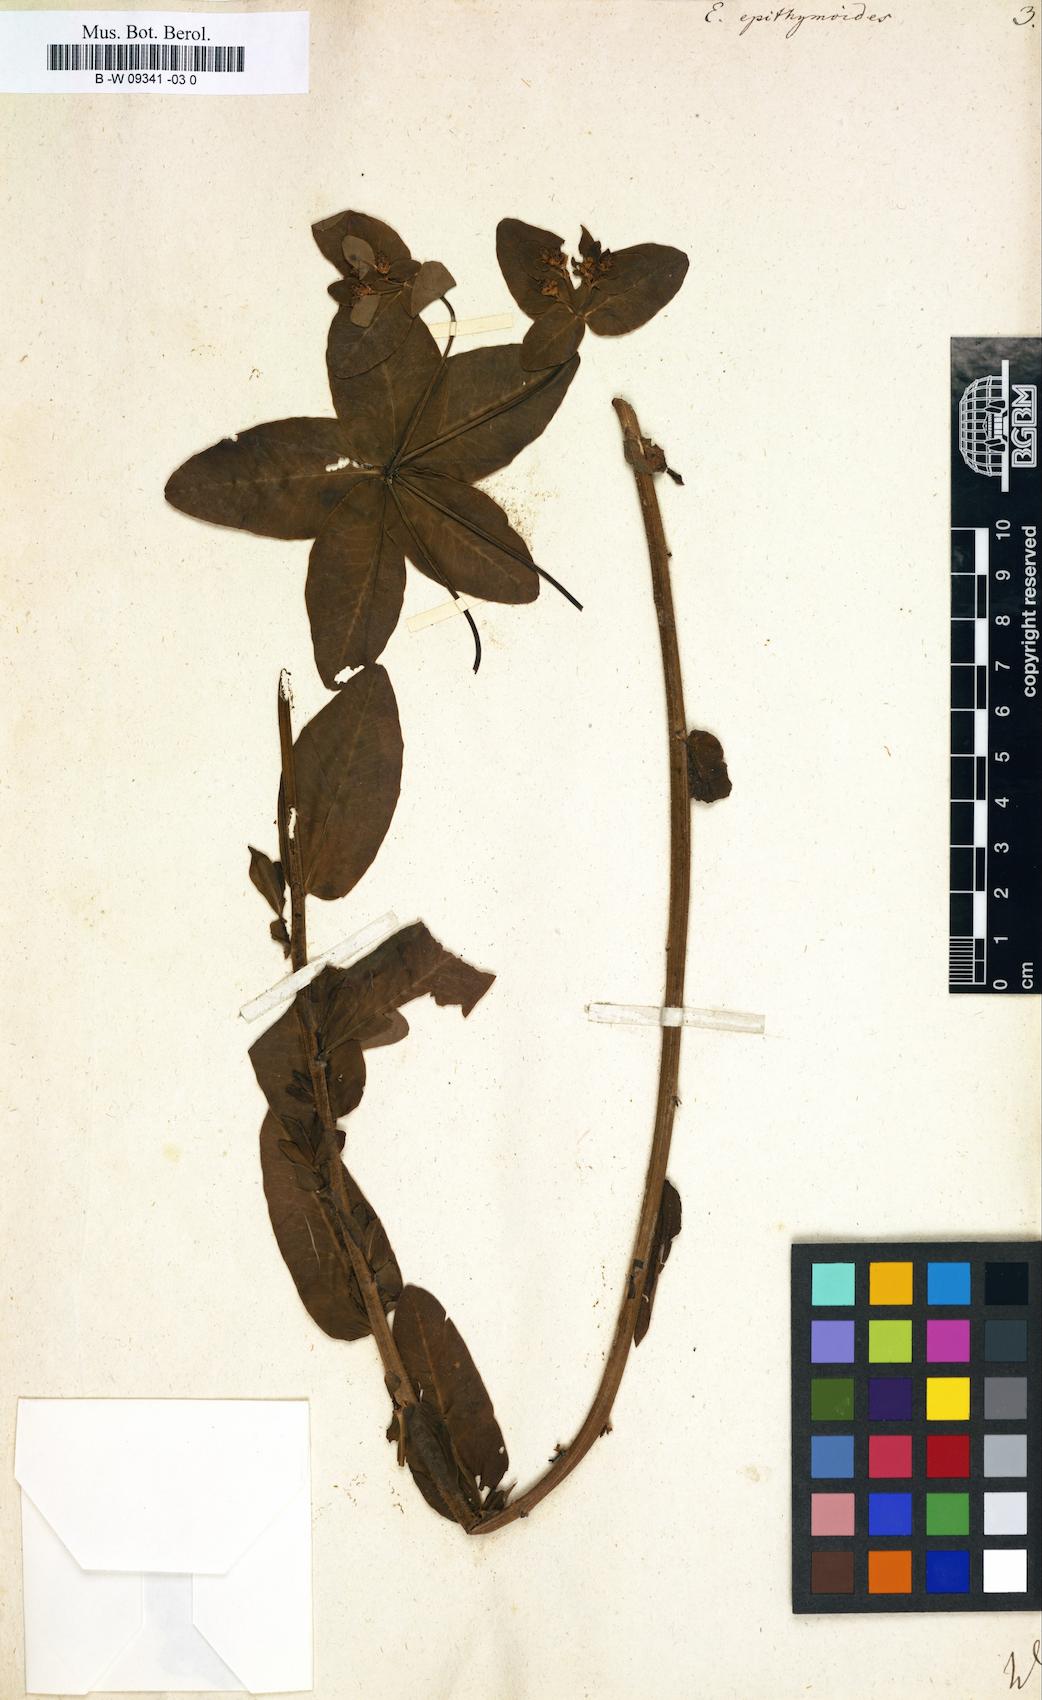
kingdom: Plantae
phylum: Tracheophyta
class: Magnoliopsida
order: Malpighiales
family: Euphorbiaceae
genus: Euphorbia
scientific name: Euphorbia epithymoides
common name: Cushion spurge
